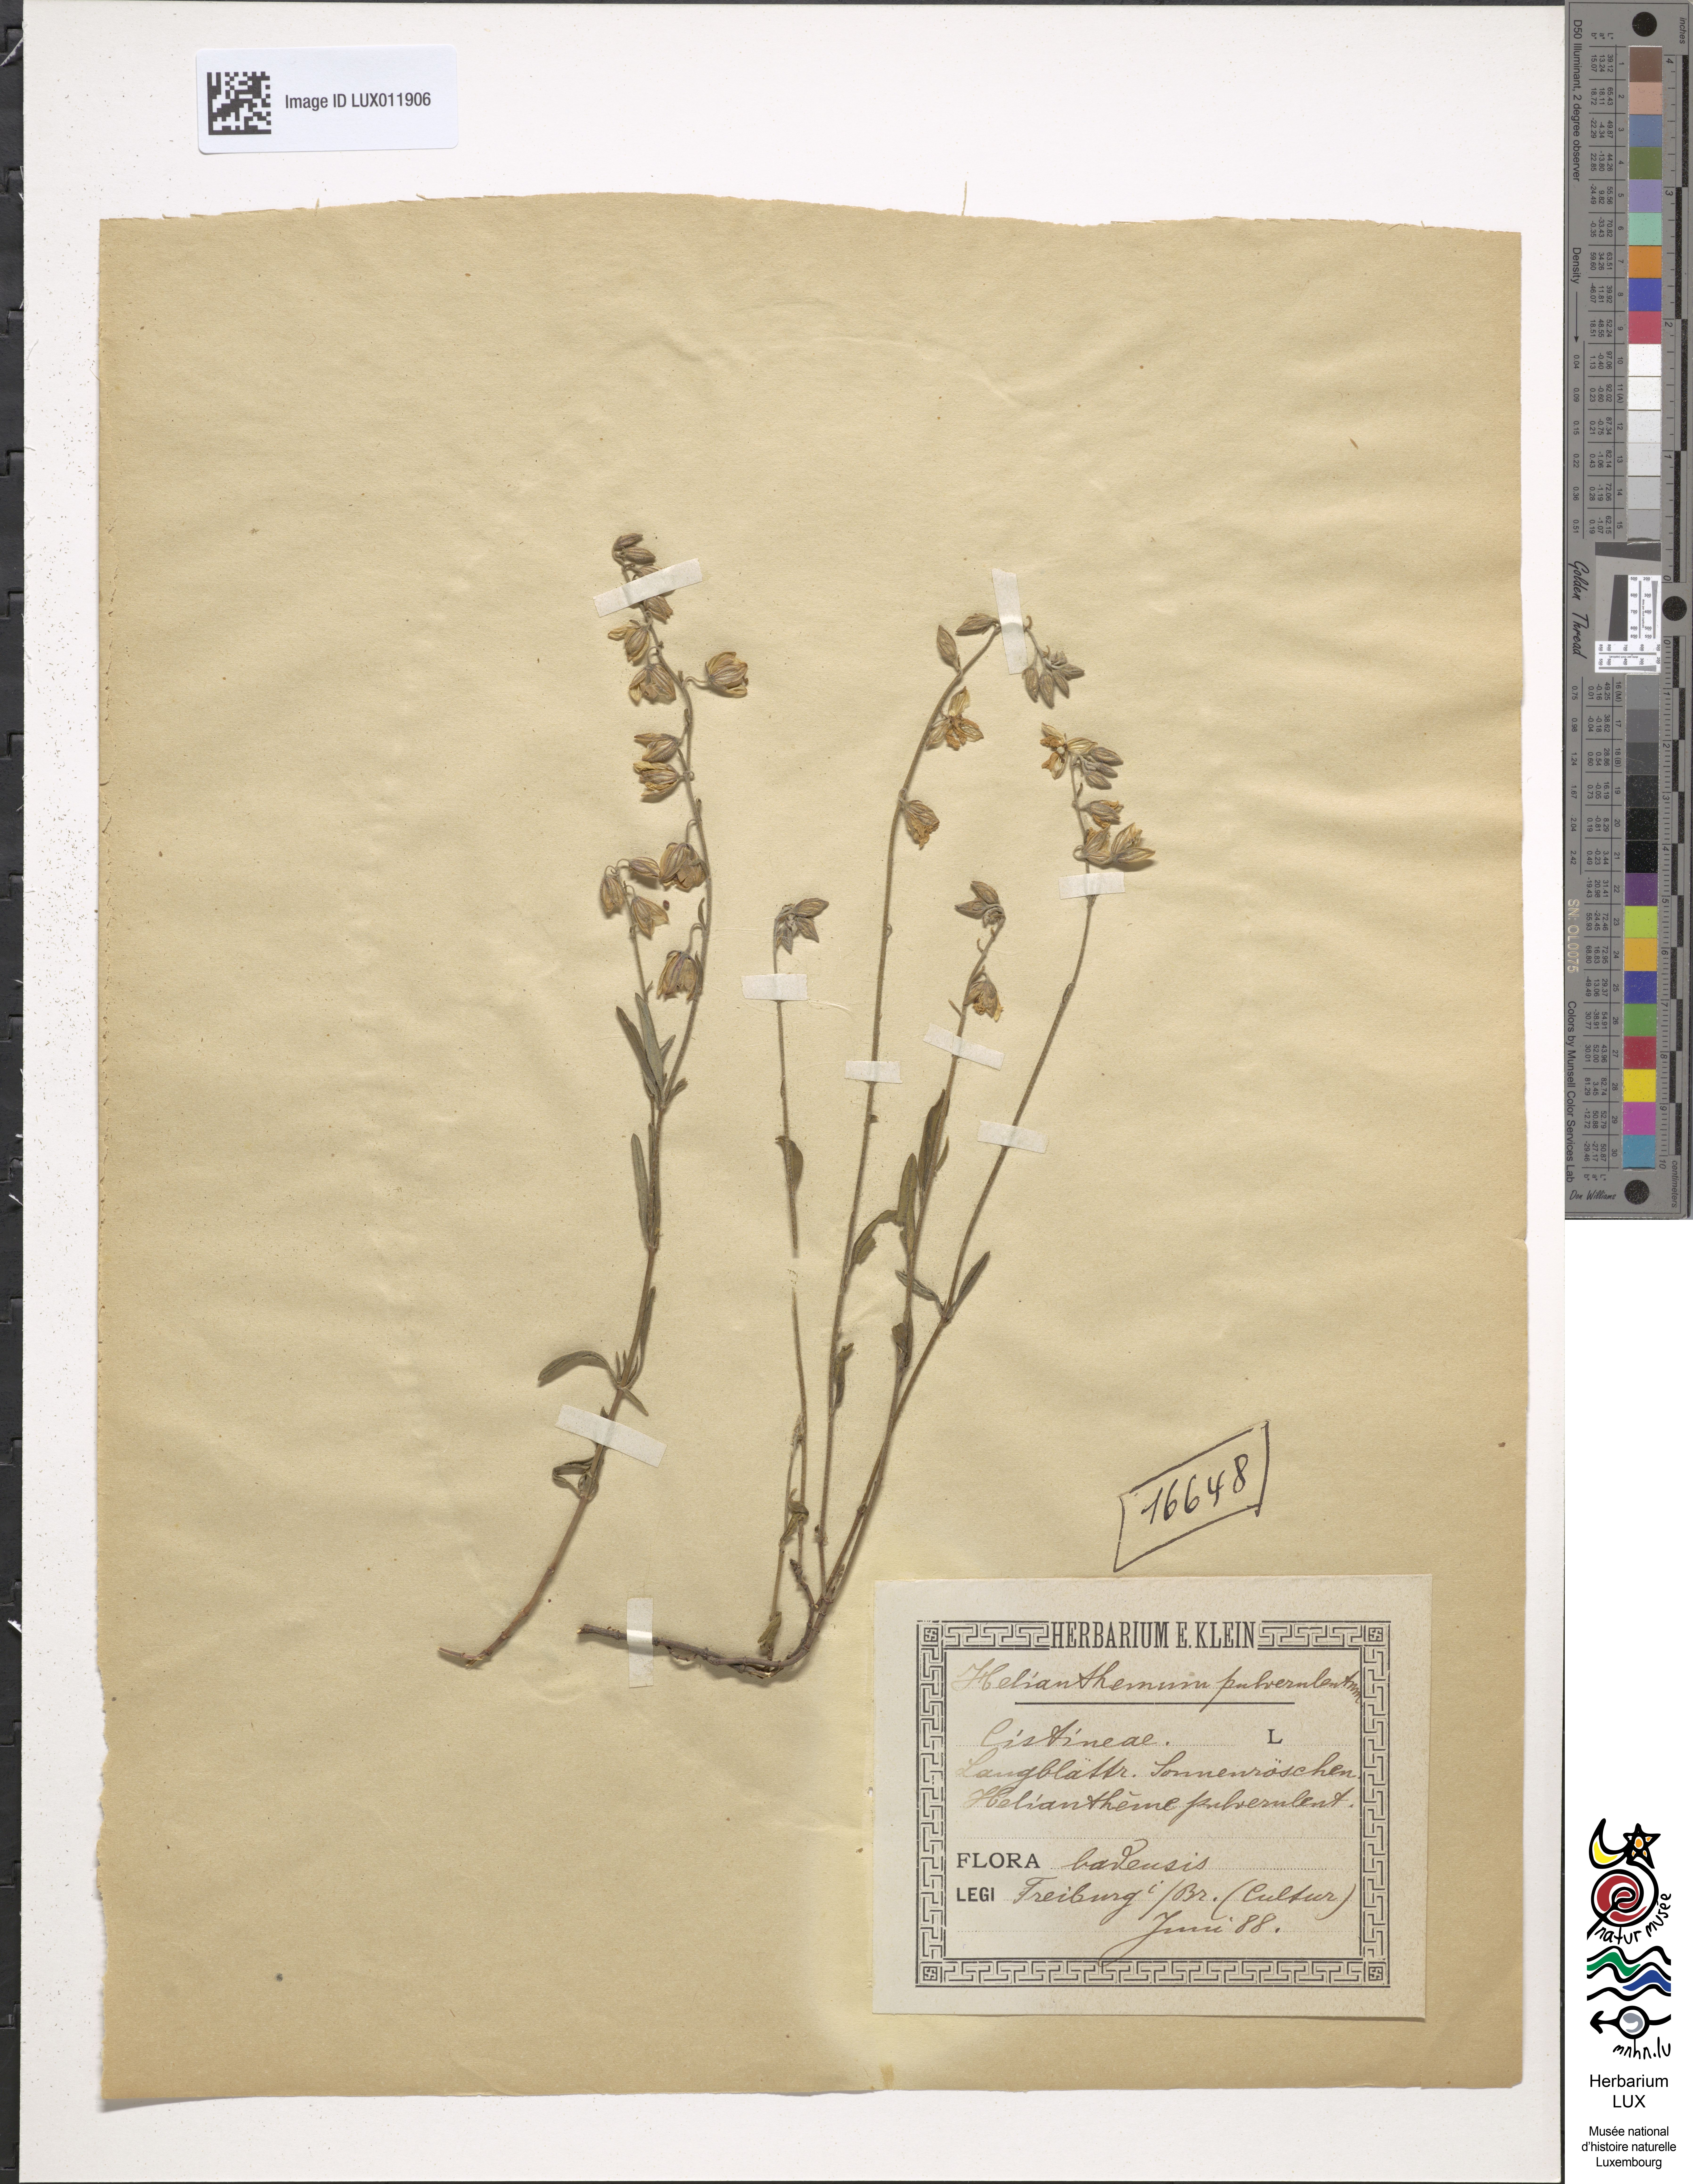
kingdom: Plantae
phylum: Tracheophyta
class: Magnoliopsida
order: Malvales
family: Cistaceae
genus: Helianthemum
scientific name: Helianthemum apenninum
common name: White rock-rose
